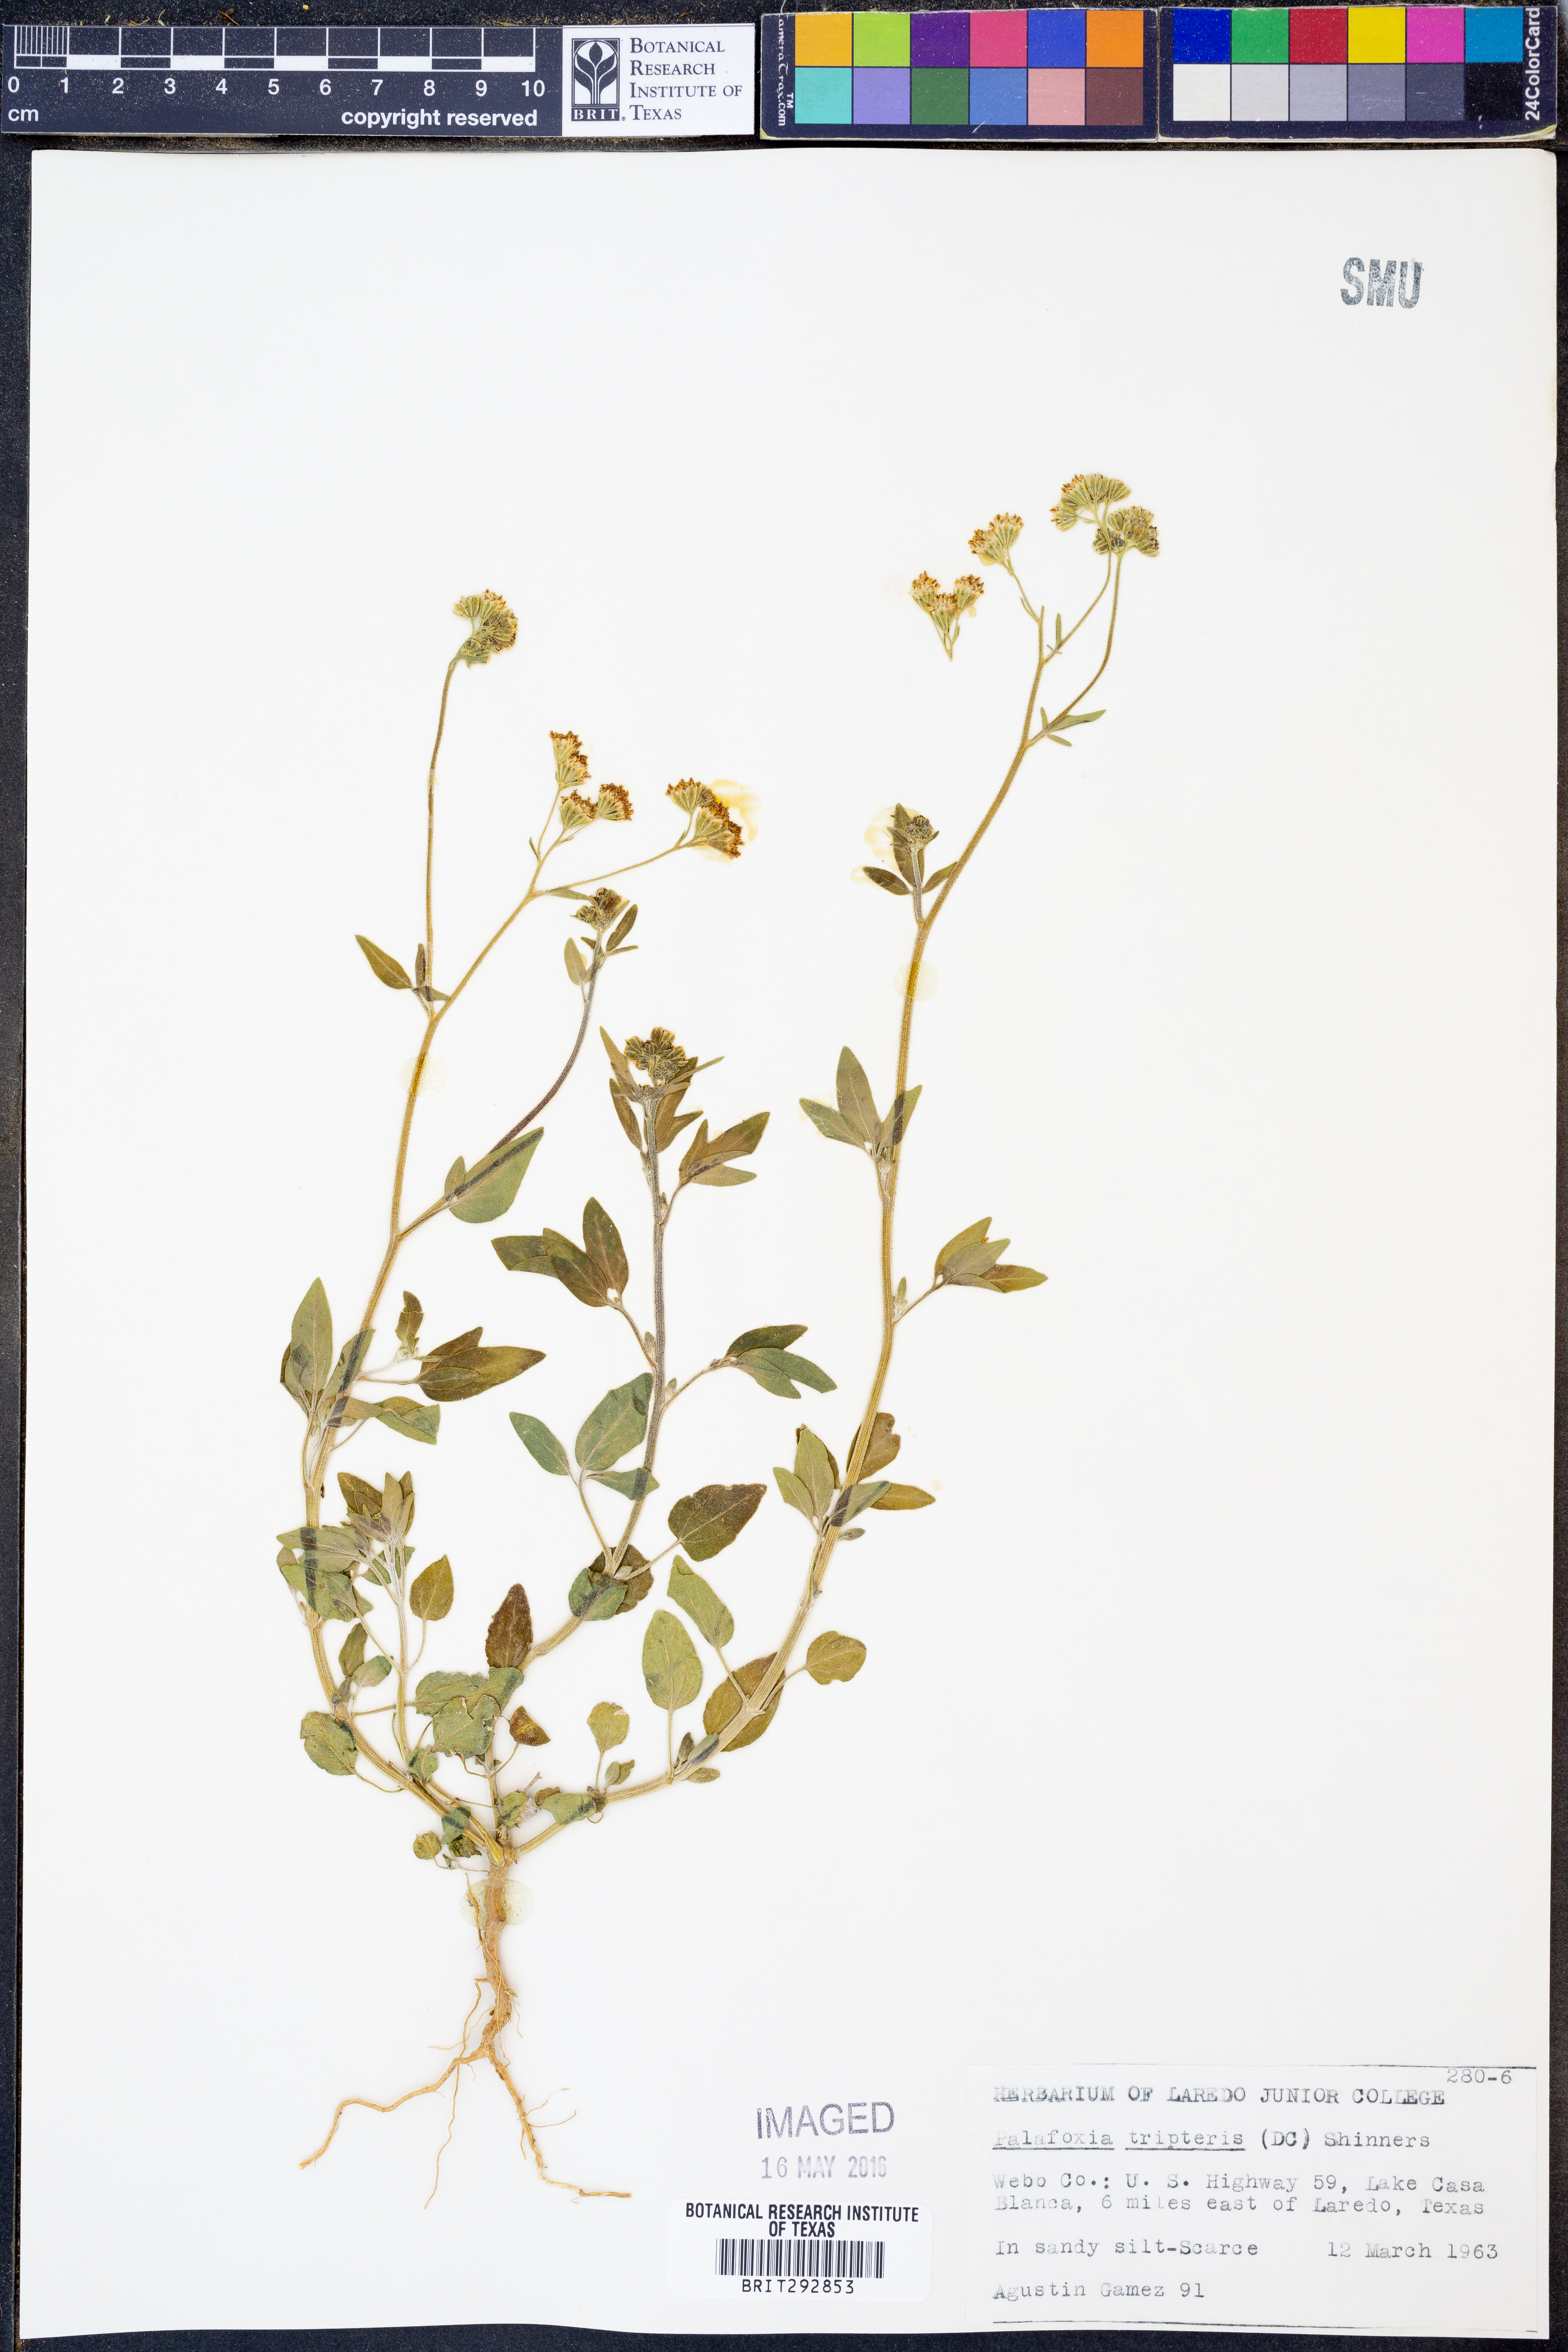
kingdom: Plantae
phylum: Tracheophyta
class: Magnoliopsida
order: Asterales
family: Asteraceae
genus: Florestina
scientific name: Florestina tripteris
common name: Sticky florestina
